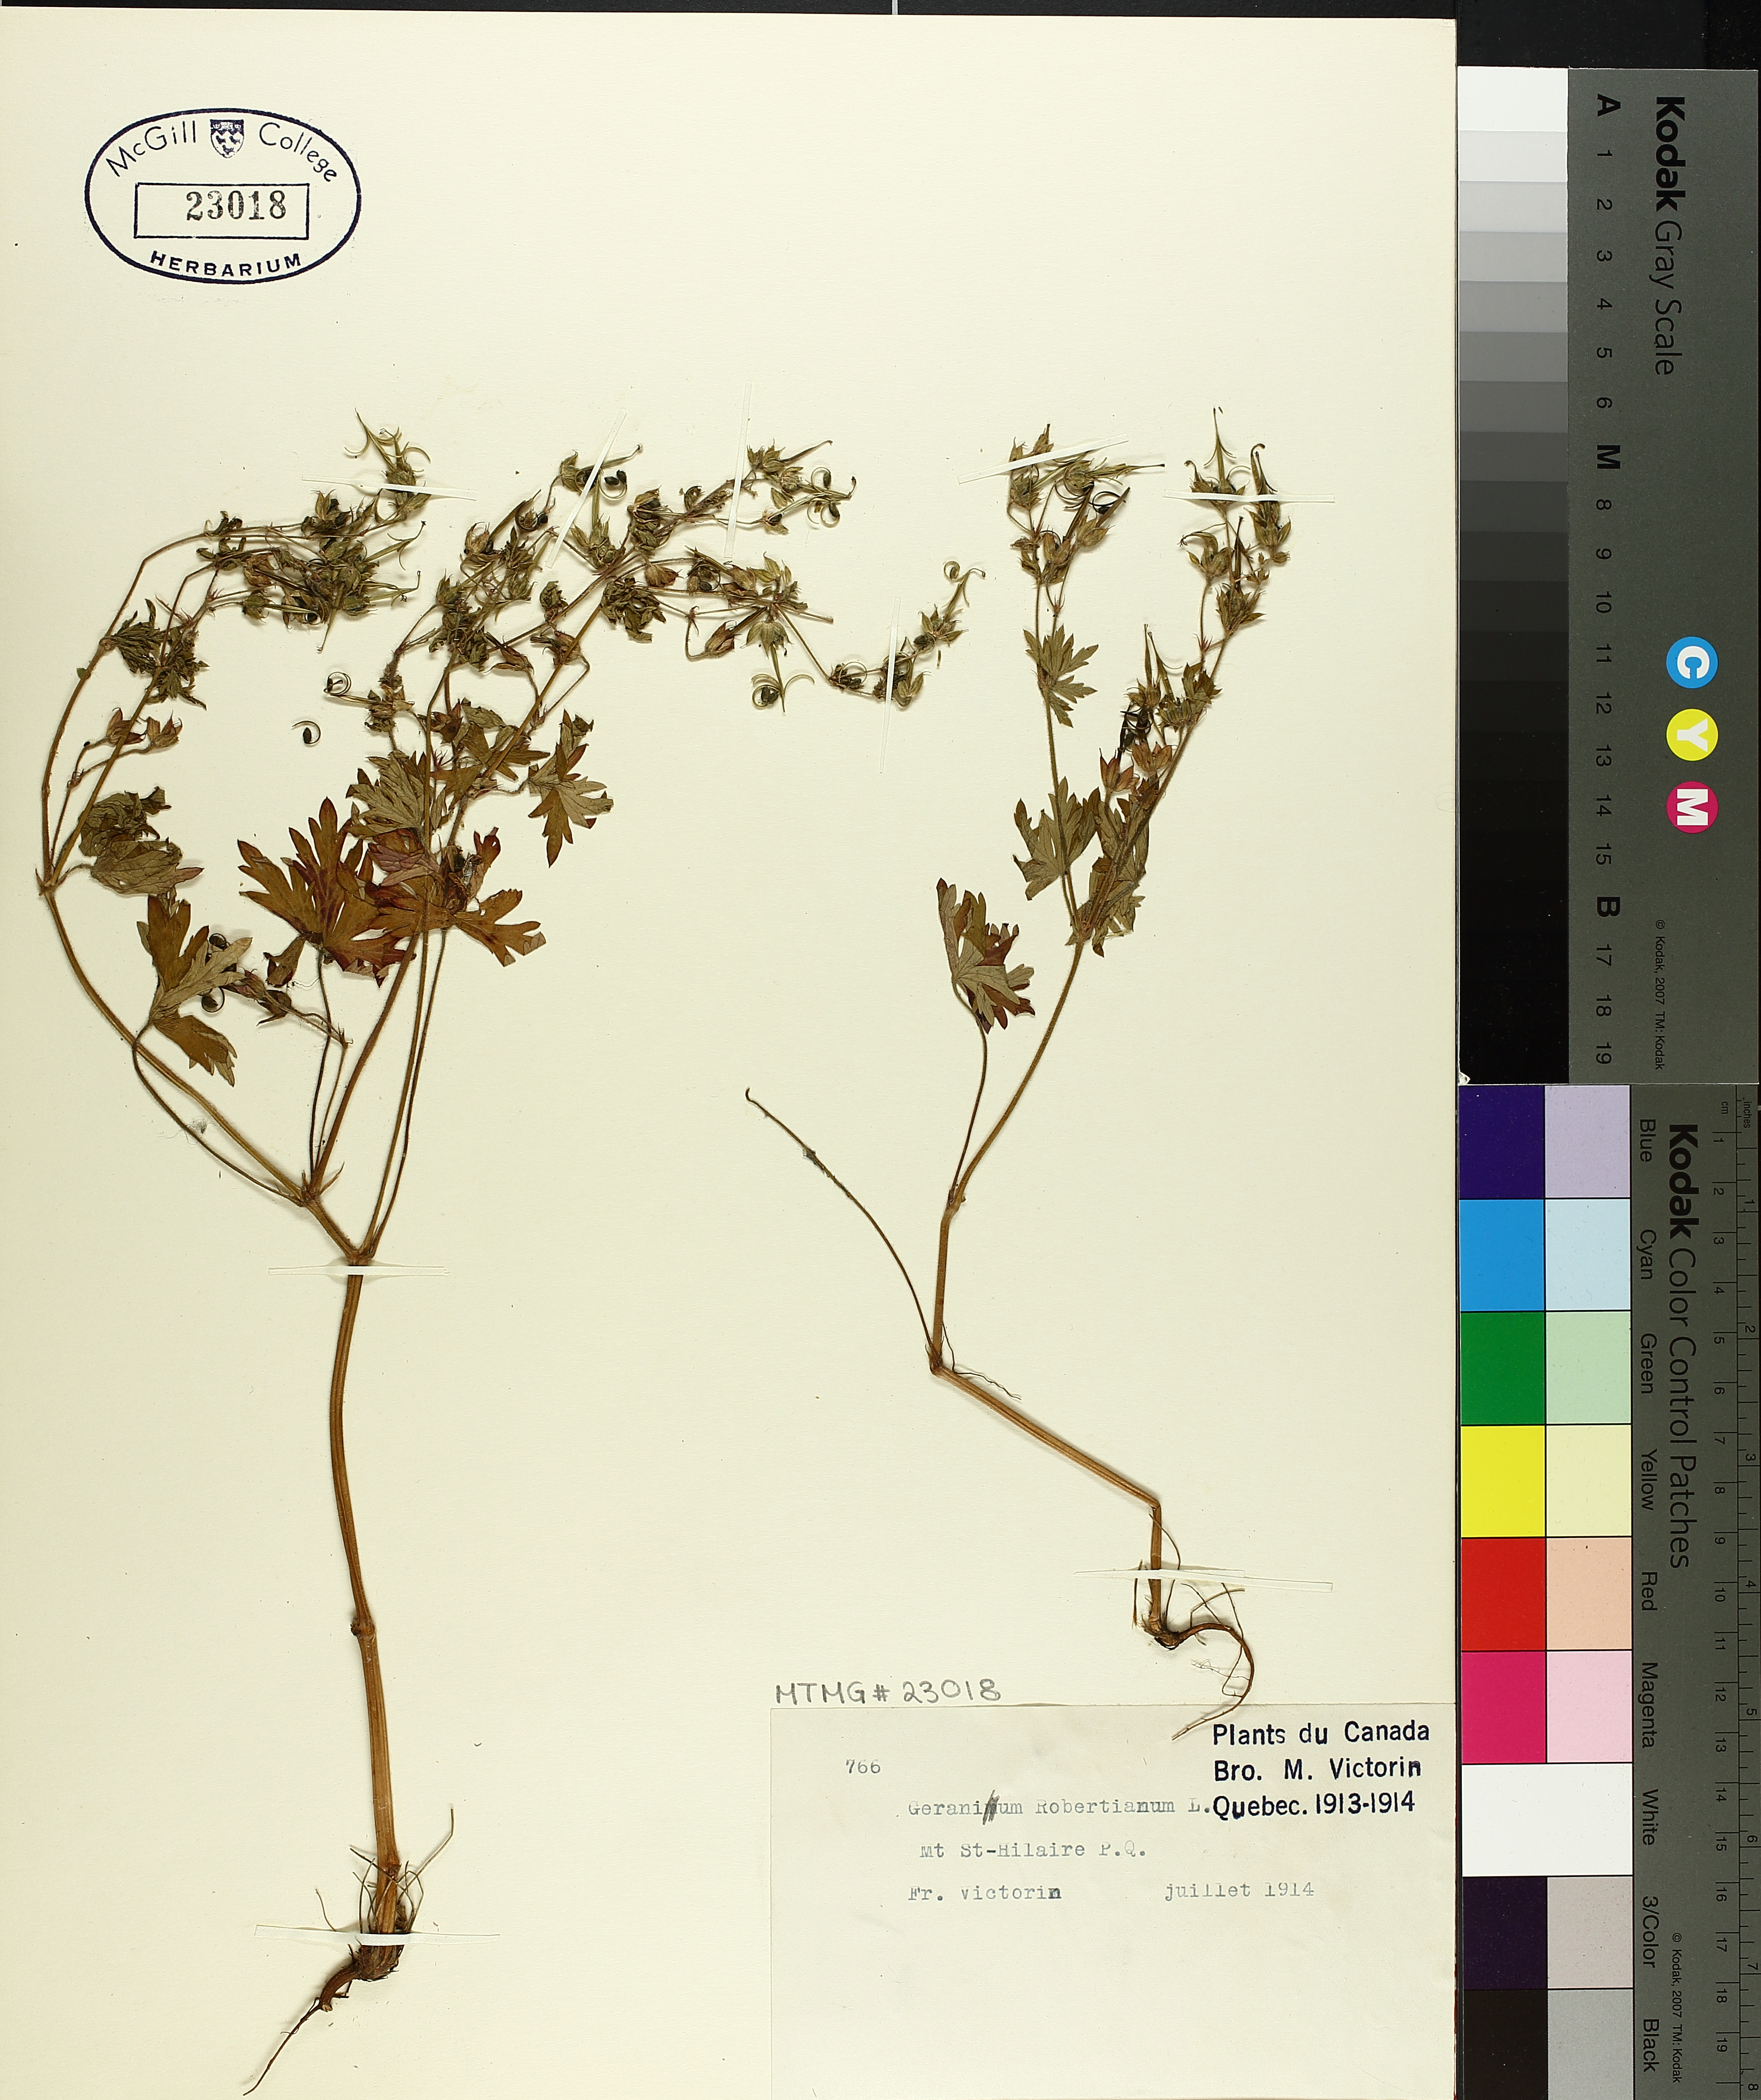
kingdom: Plantae
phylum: Tracheophyta
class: Magnoliopsida
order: Geraniales
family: Geraniaceae
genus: Geranium
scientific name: Geranium robertianum
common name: Herb-robert
